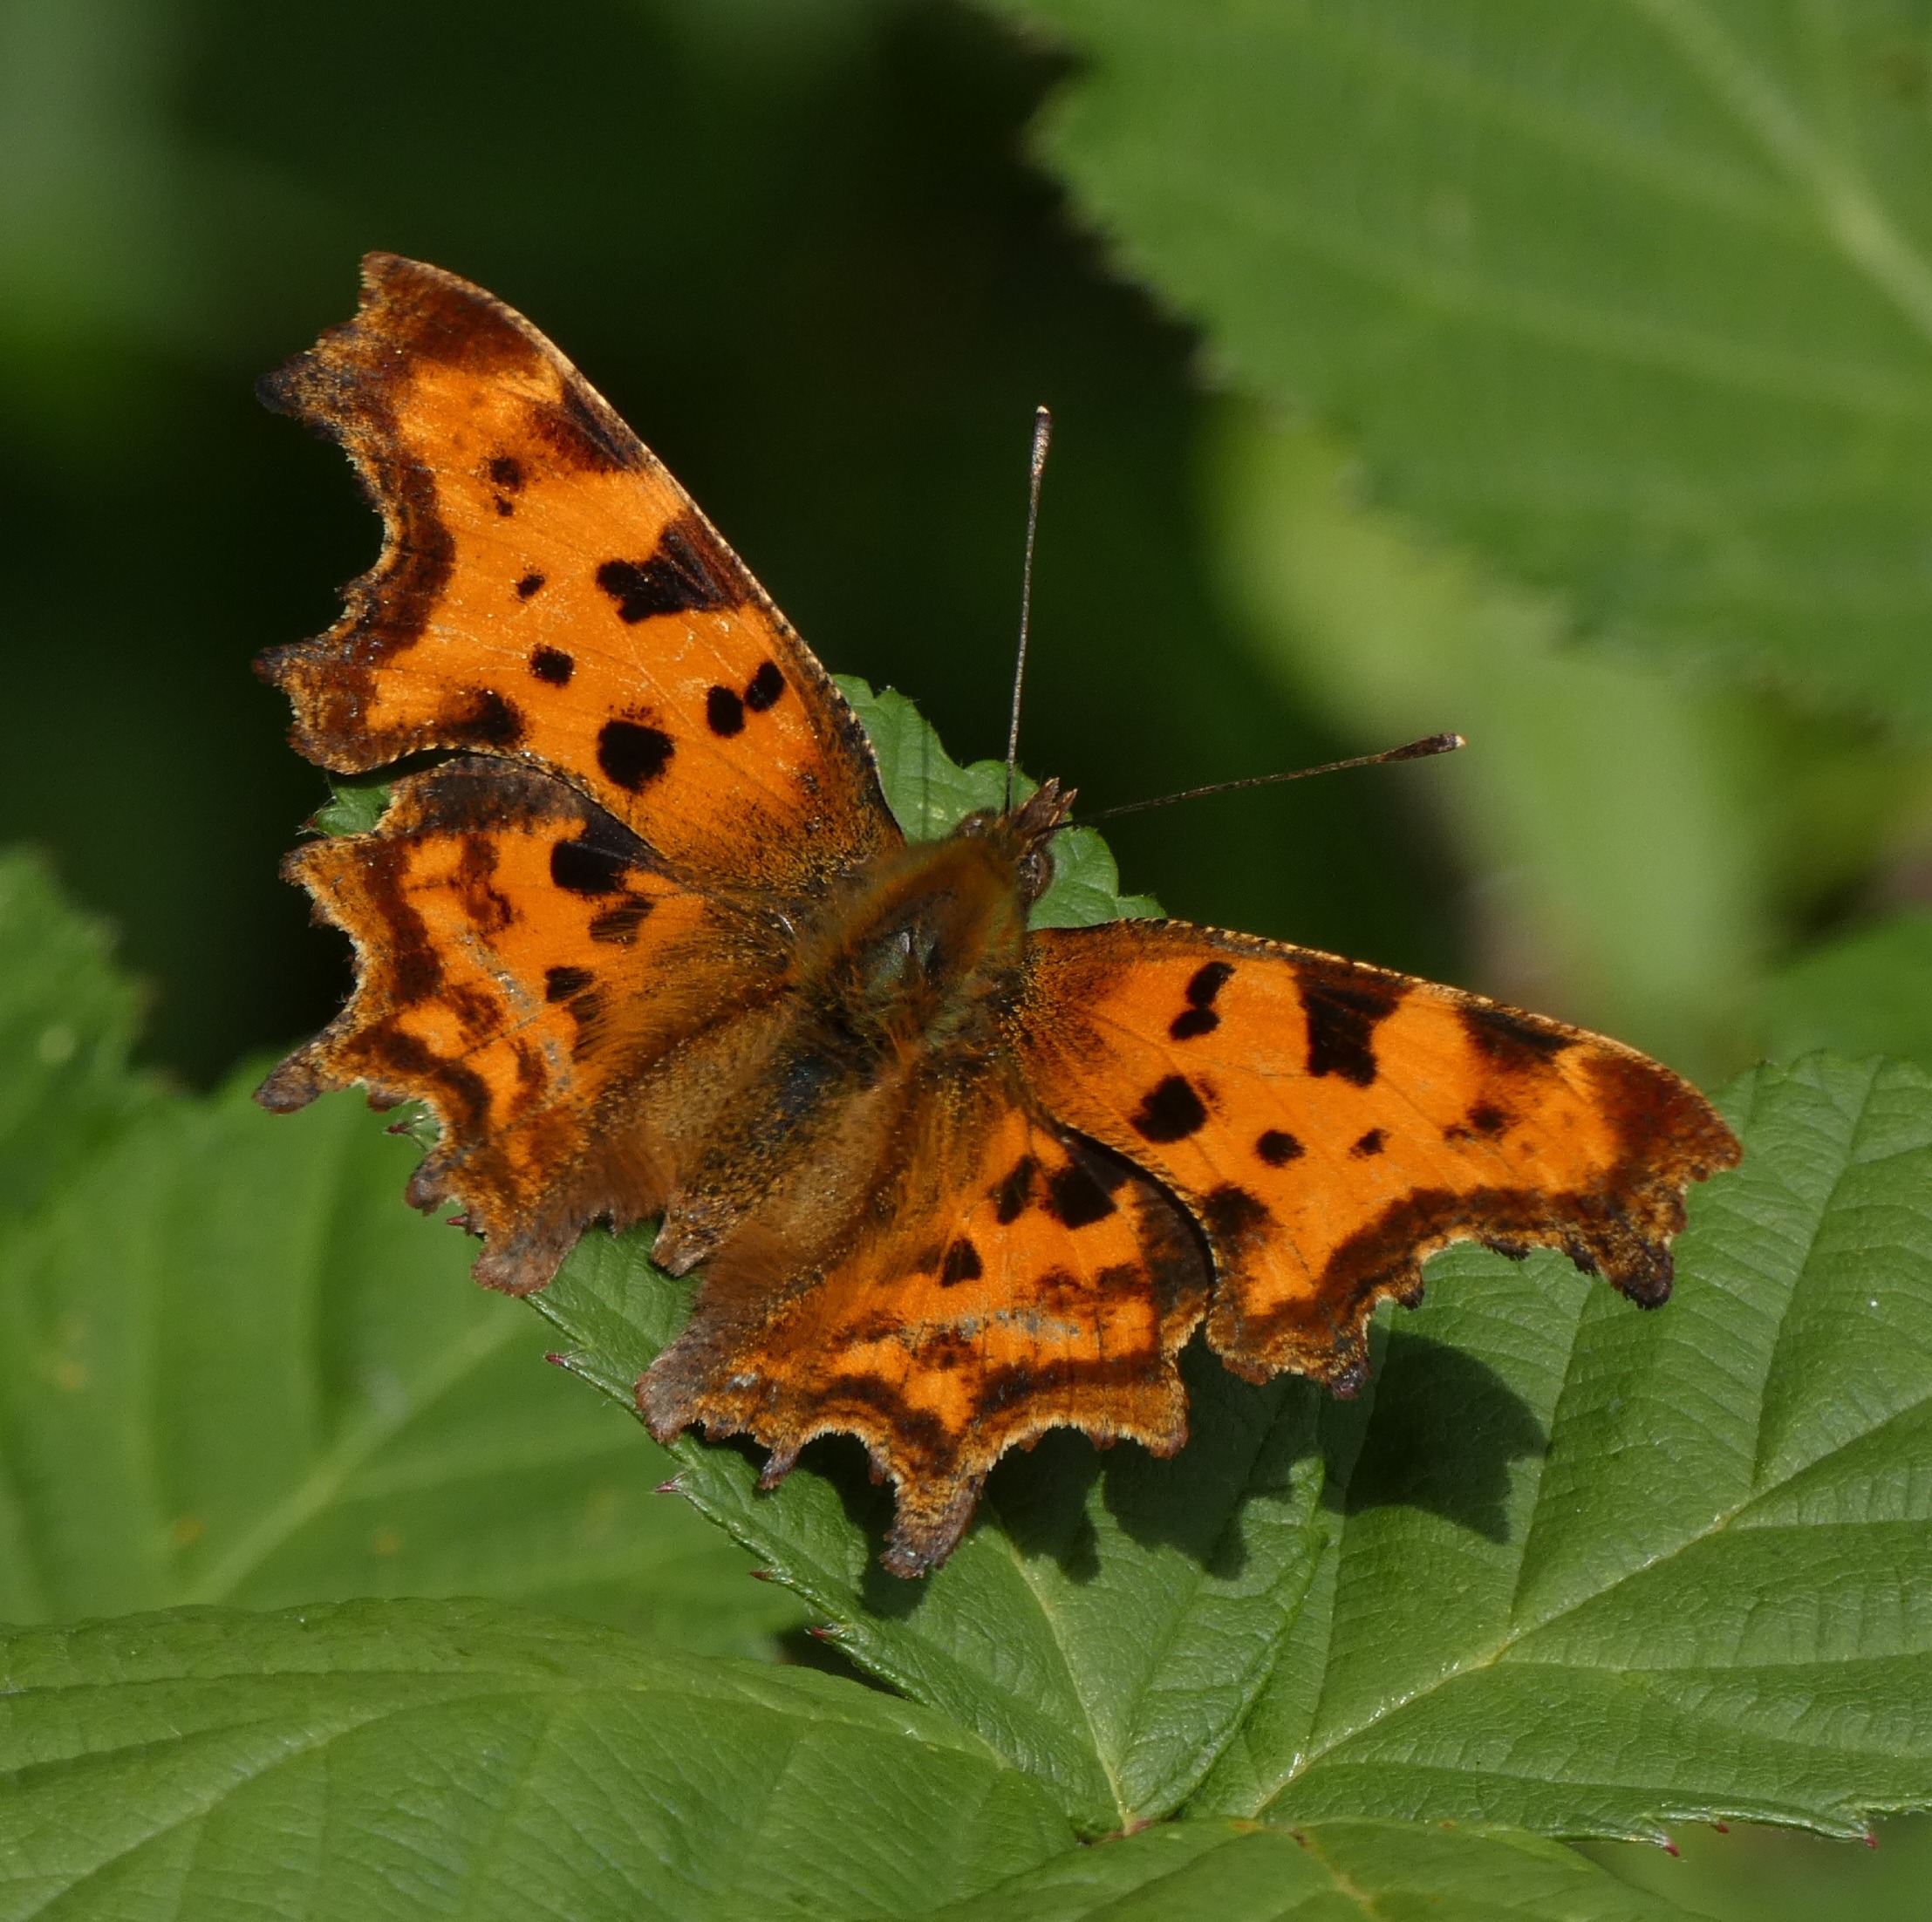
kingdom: Animalia
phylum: Arthropoda
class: Insecta
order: Lepidoptera
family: Nymphalidae
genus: Polygonia
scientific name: Polygonia c-album
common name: Det hvide C
